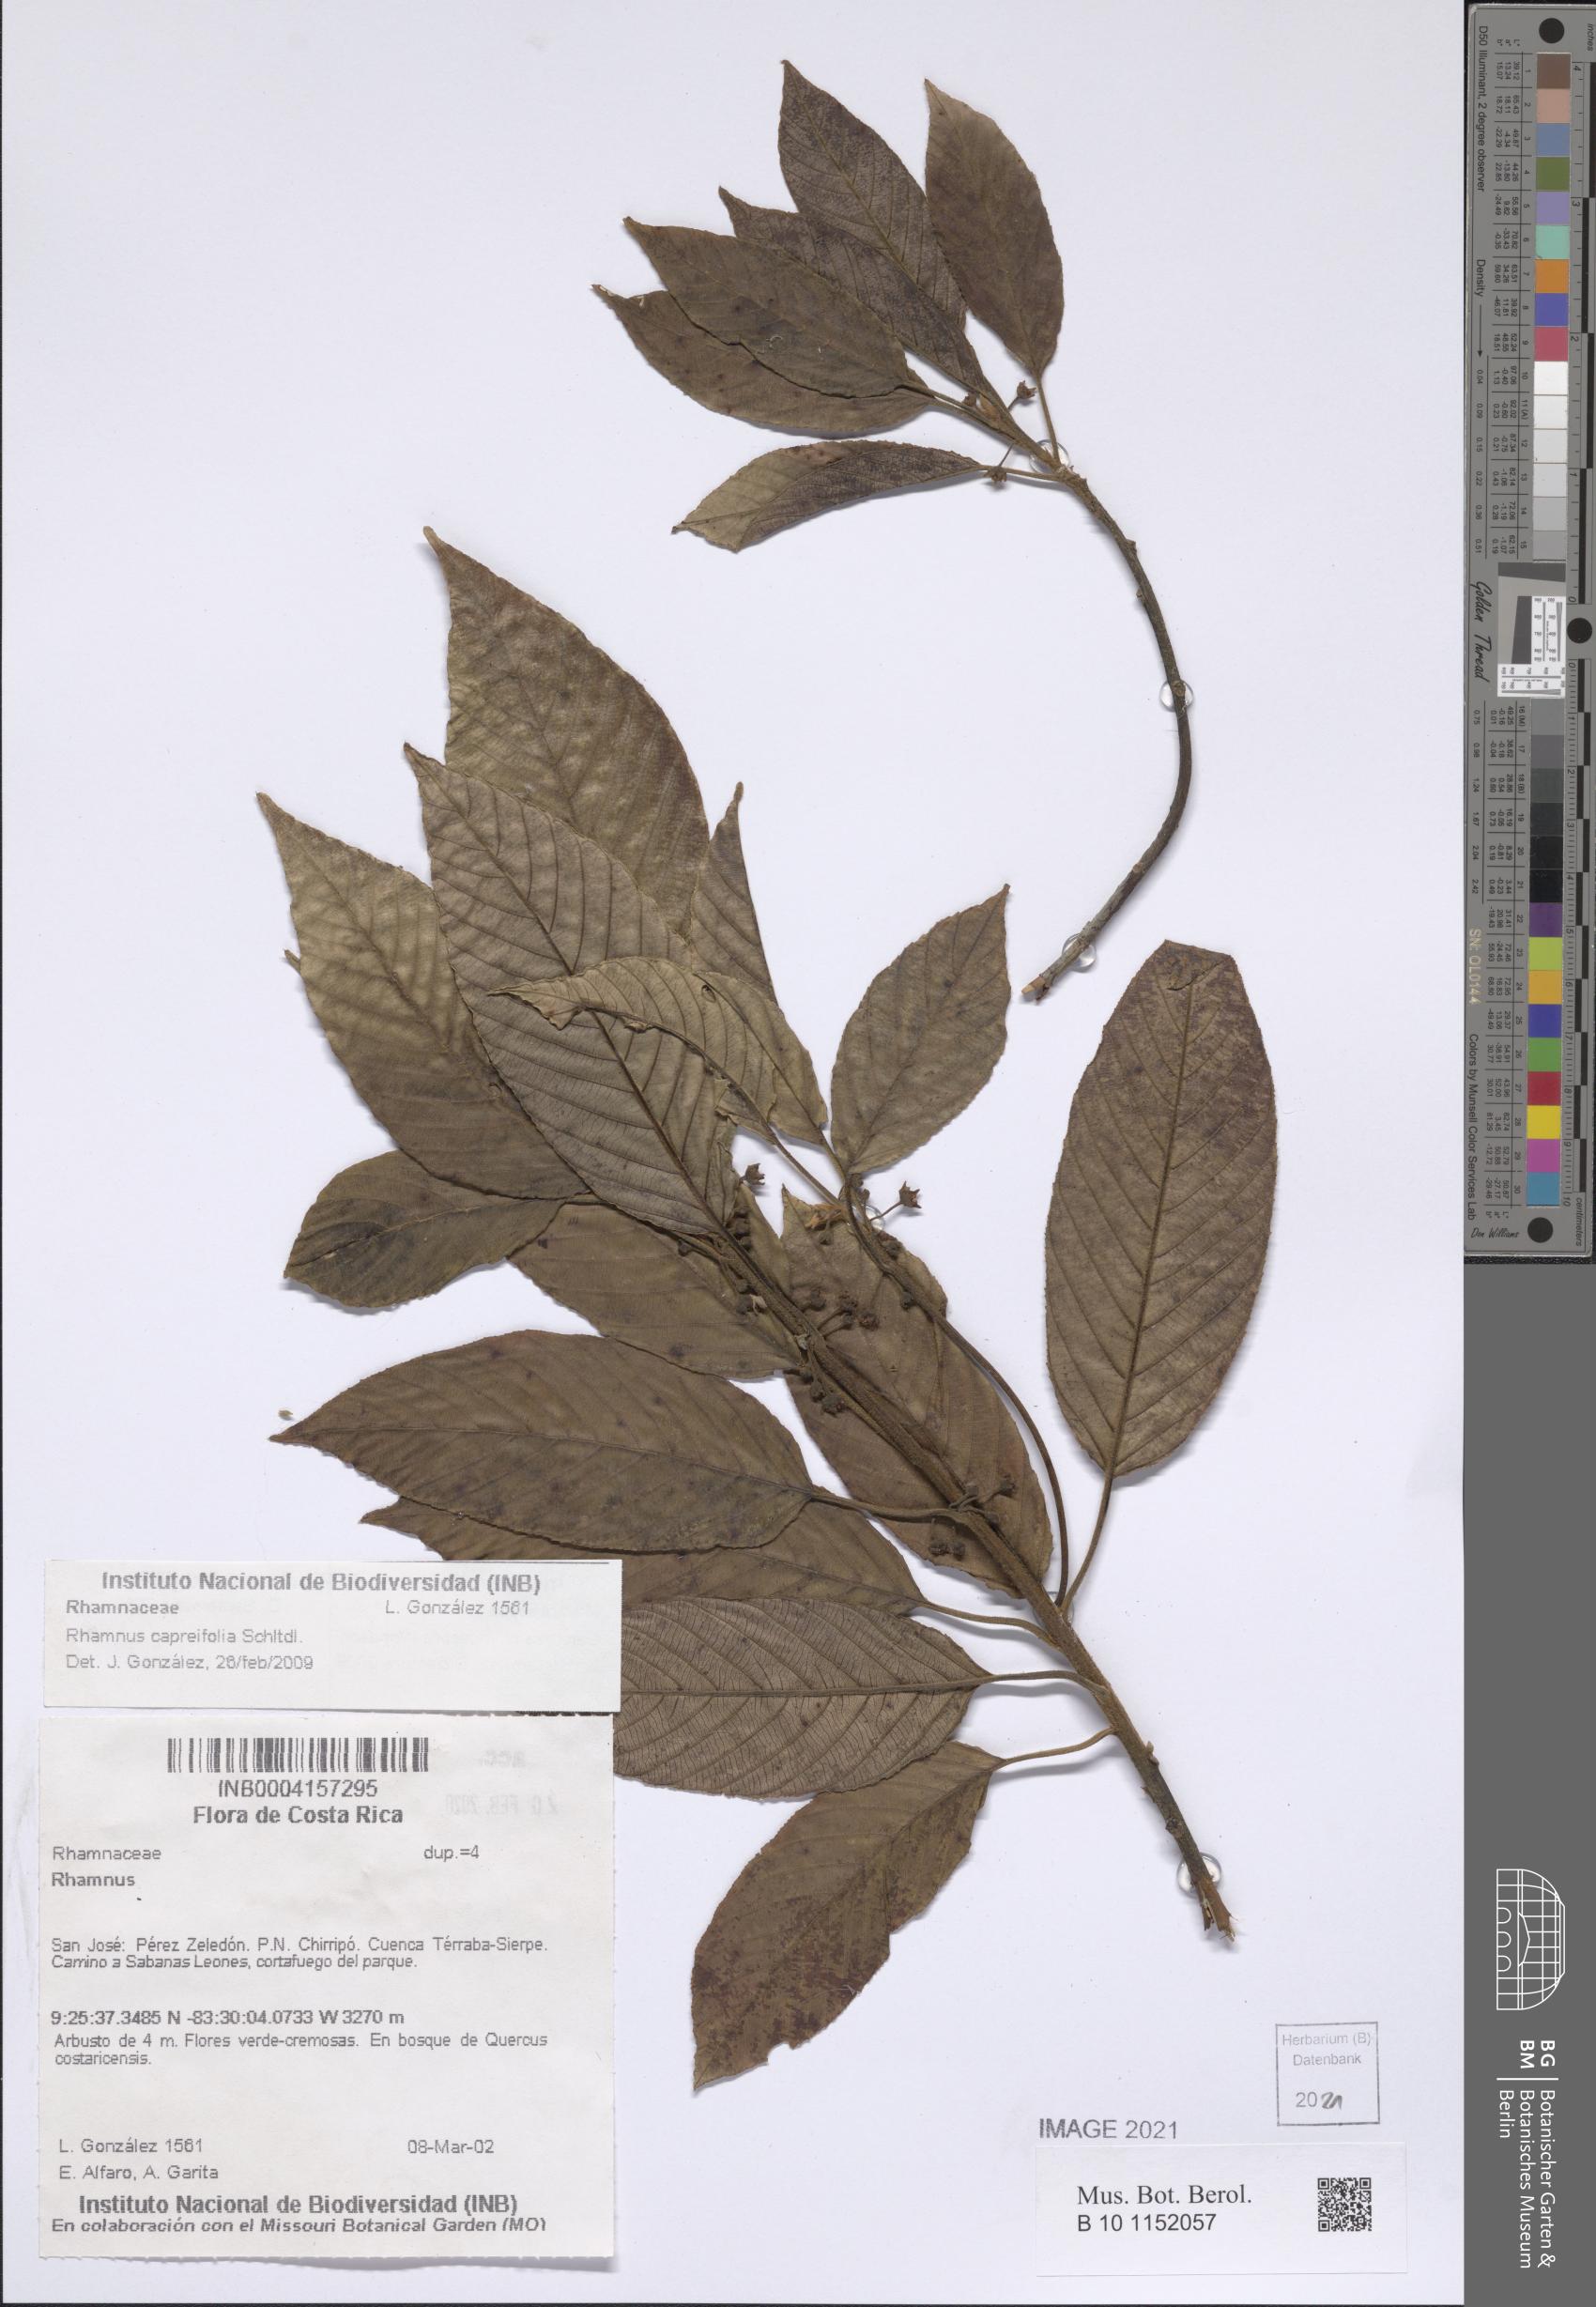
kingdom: Plantae
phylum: Tracheophyta
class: Magnoliopsida
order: Rosales
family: Rhamnaceae
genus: Frangula
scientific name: Frangula oreodendron
